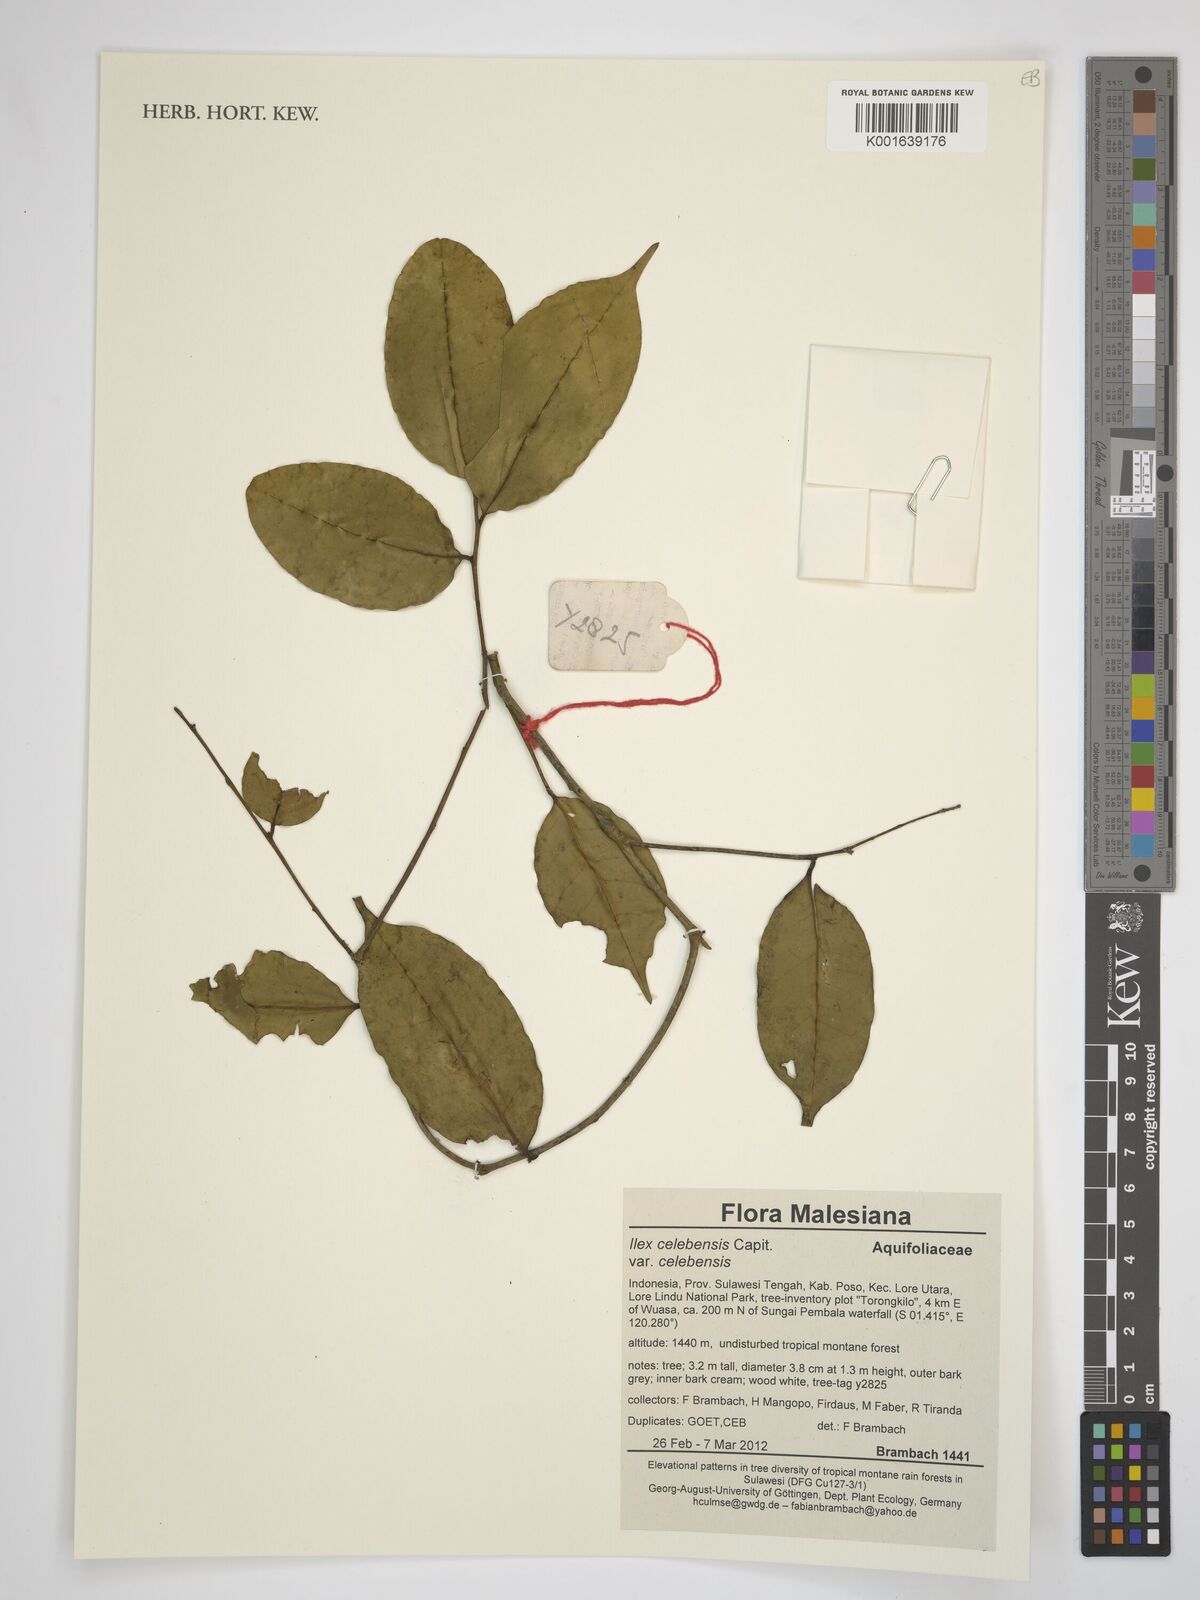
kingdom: Plantae
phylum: Tracheophyta
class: Magnoliopsida
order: Aquifoliales
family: Aquifoliaceae
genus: Ilex
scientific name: Ilex celebensis
